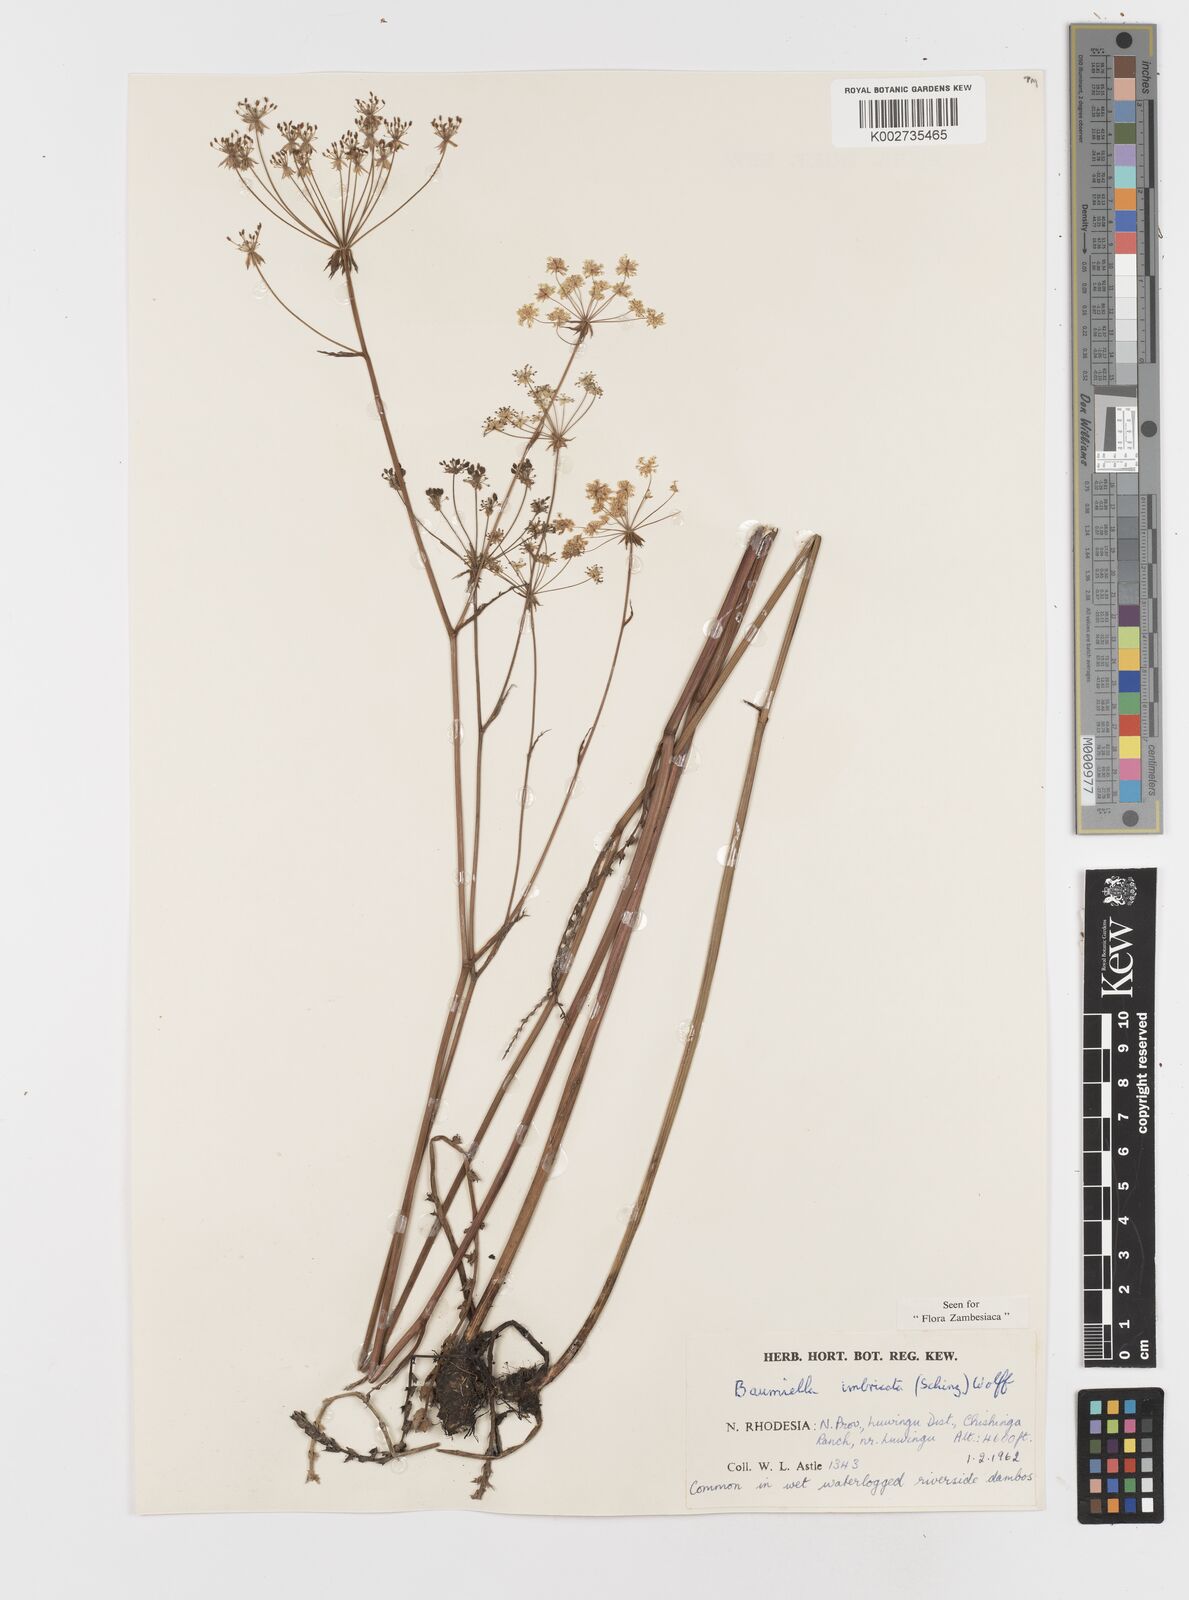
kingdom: Plantae
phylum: Tracheophyta
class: Magnoliopsida
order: Apiales
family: Apiaceae
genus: Berula
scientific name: Berula imbricata
